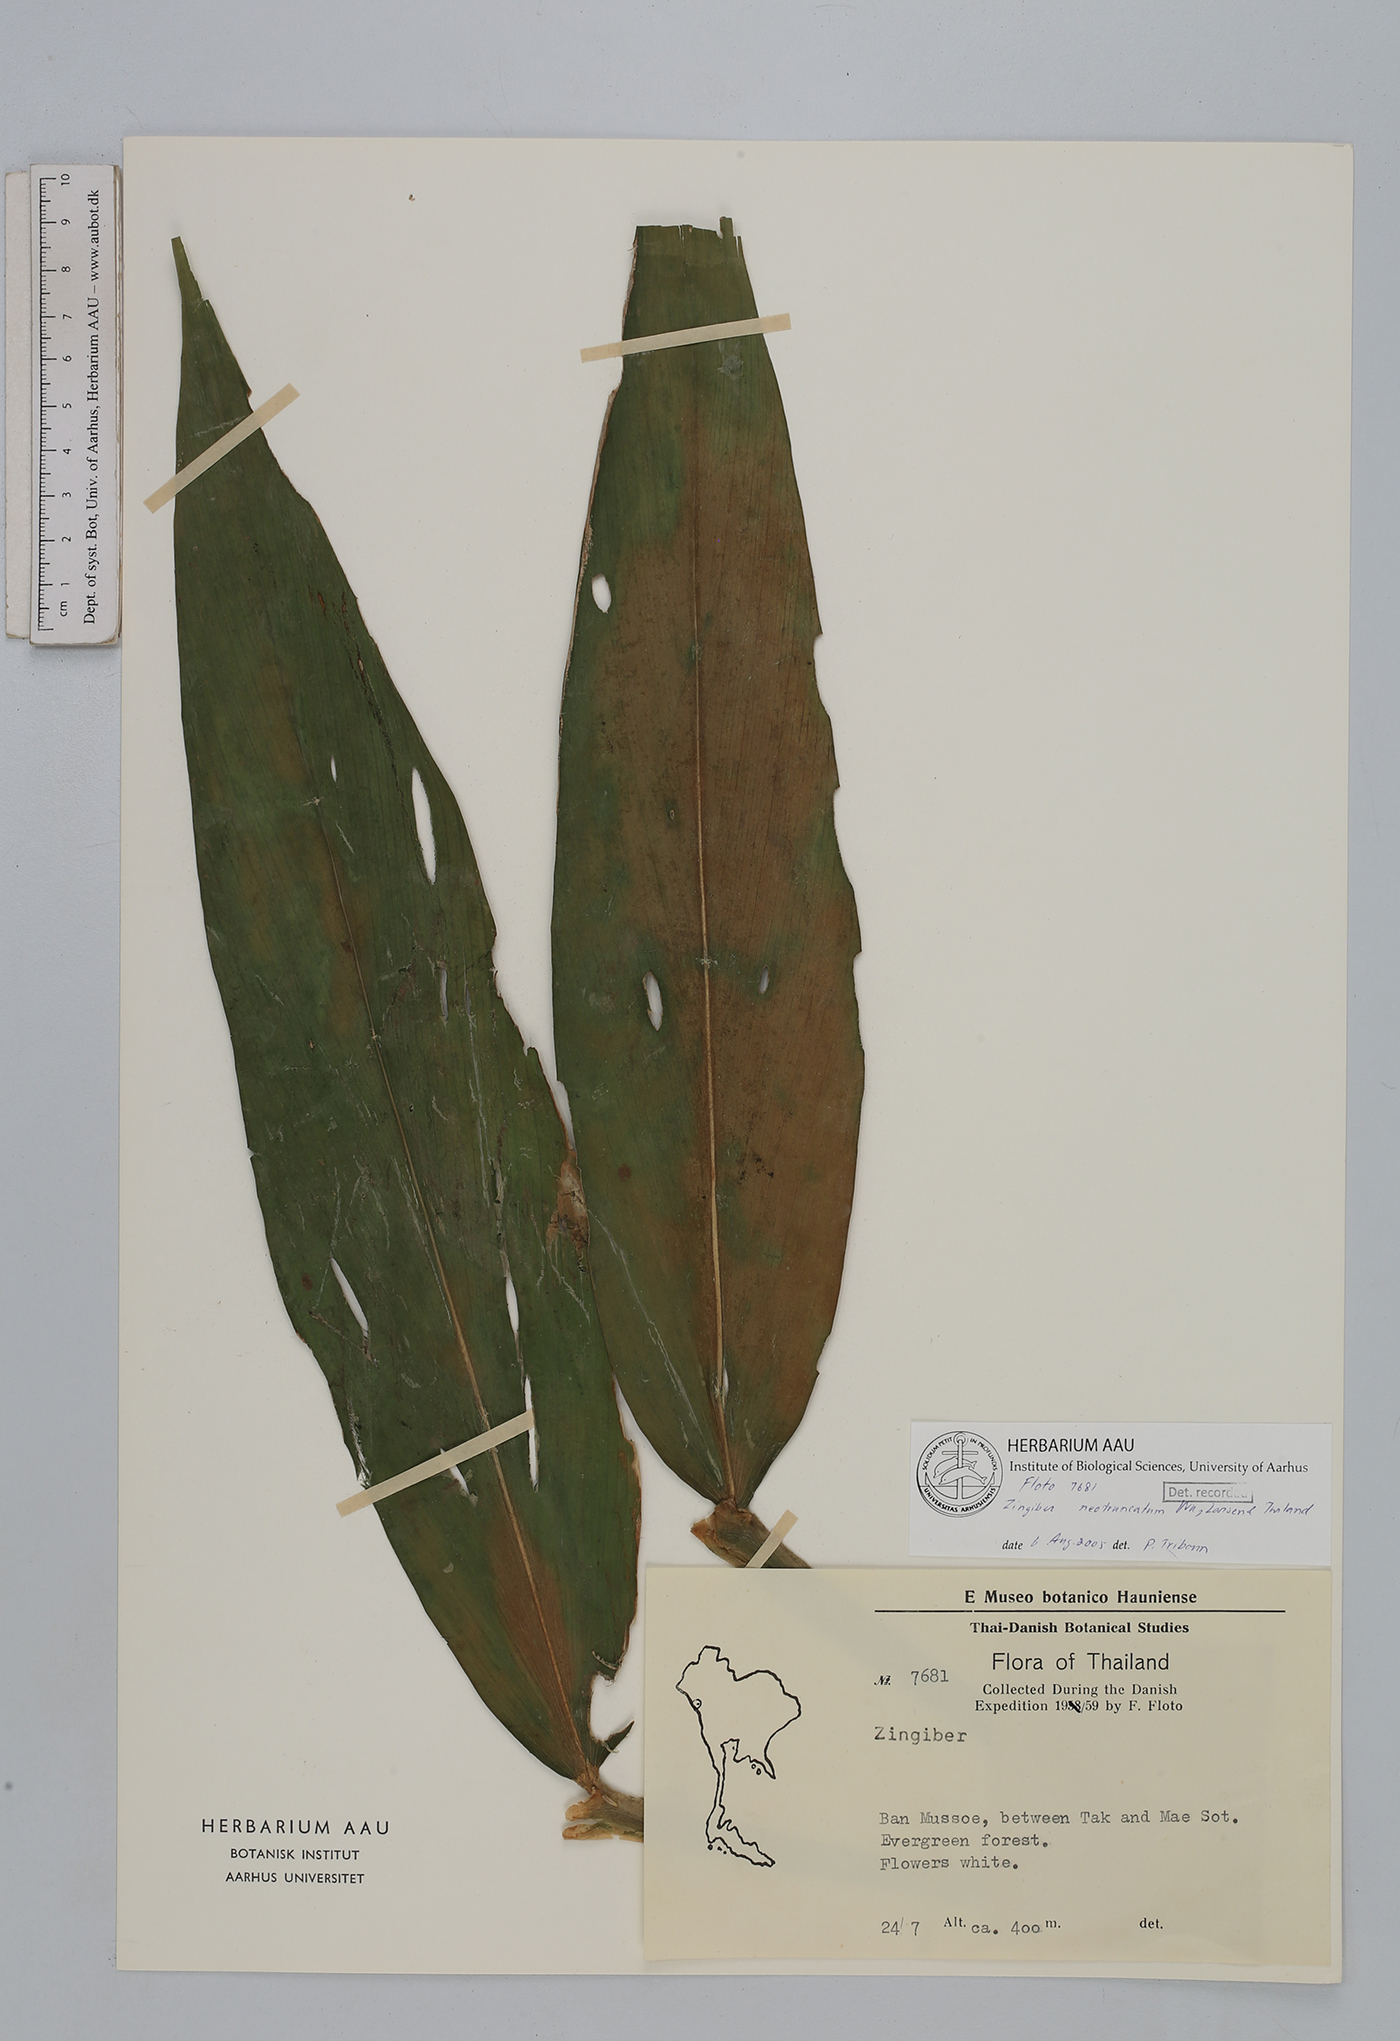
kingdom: Plantae
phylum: Tracheophyta
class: Liliopsida
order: Zingiberales
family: Zingiberaceae
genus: Zingiber
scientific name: Zingiber neotruncatum
